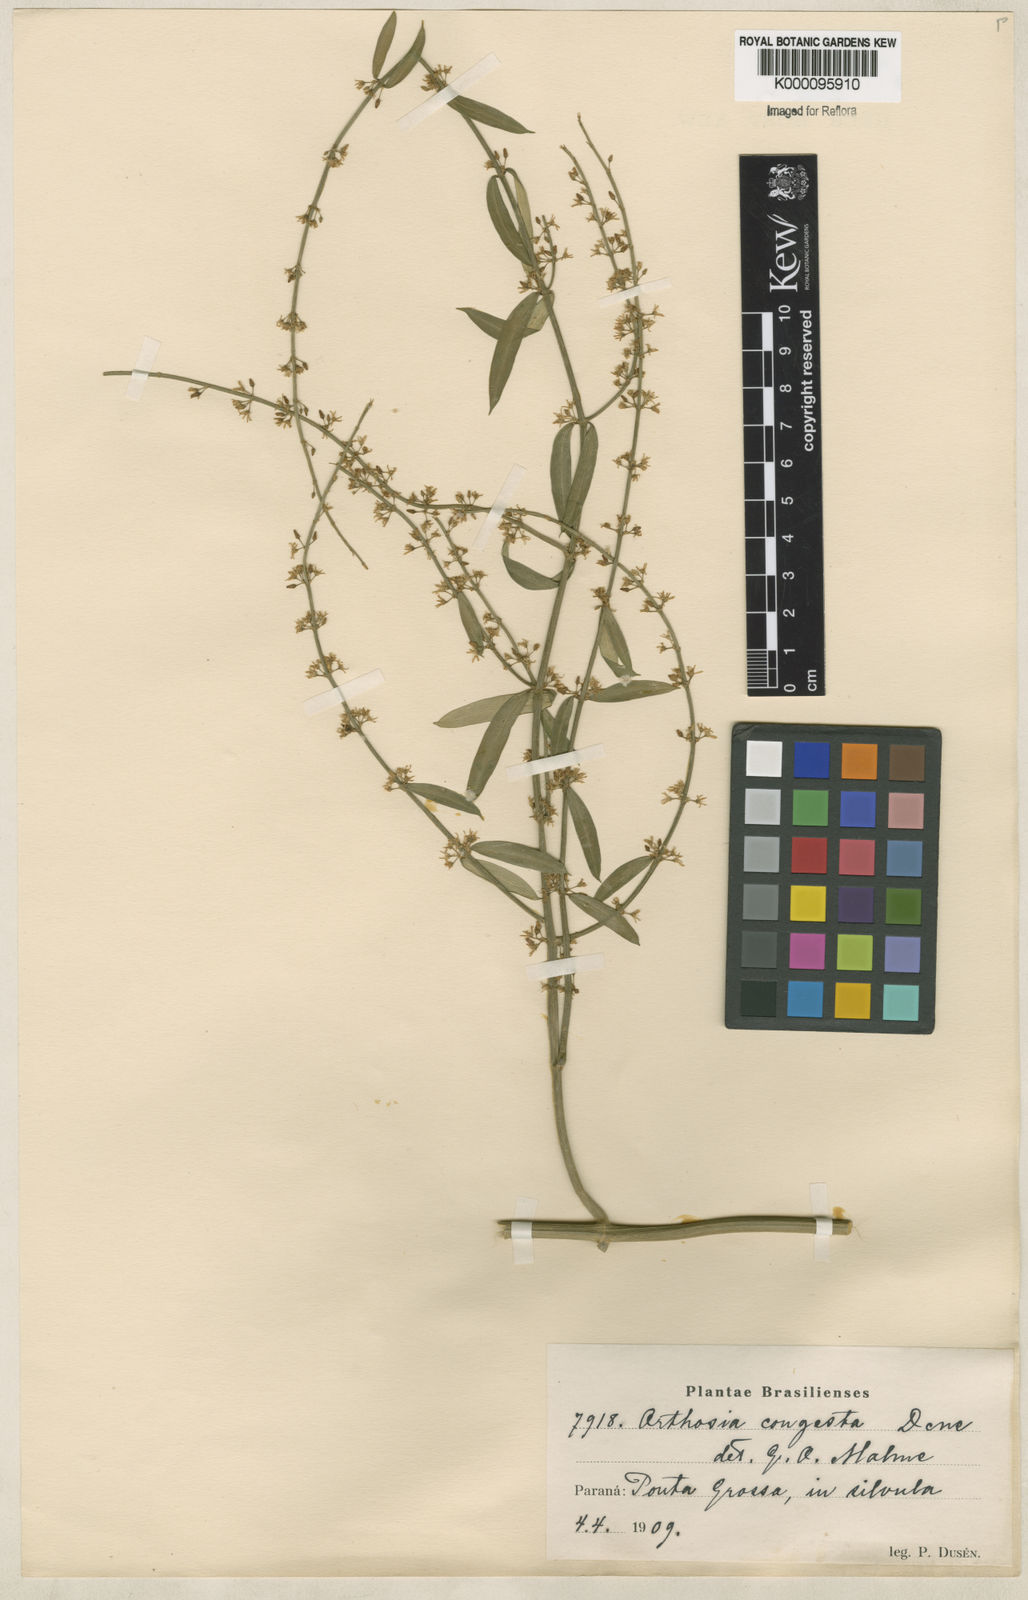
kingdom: Plantae
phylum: Tracheophyta
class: Magnoliopsida
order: Gentianales
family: Apocynaceae
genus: Orthosia
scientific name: Orthosia congesta
